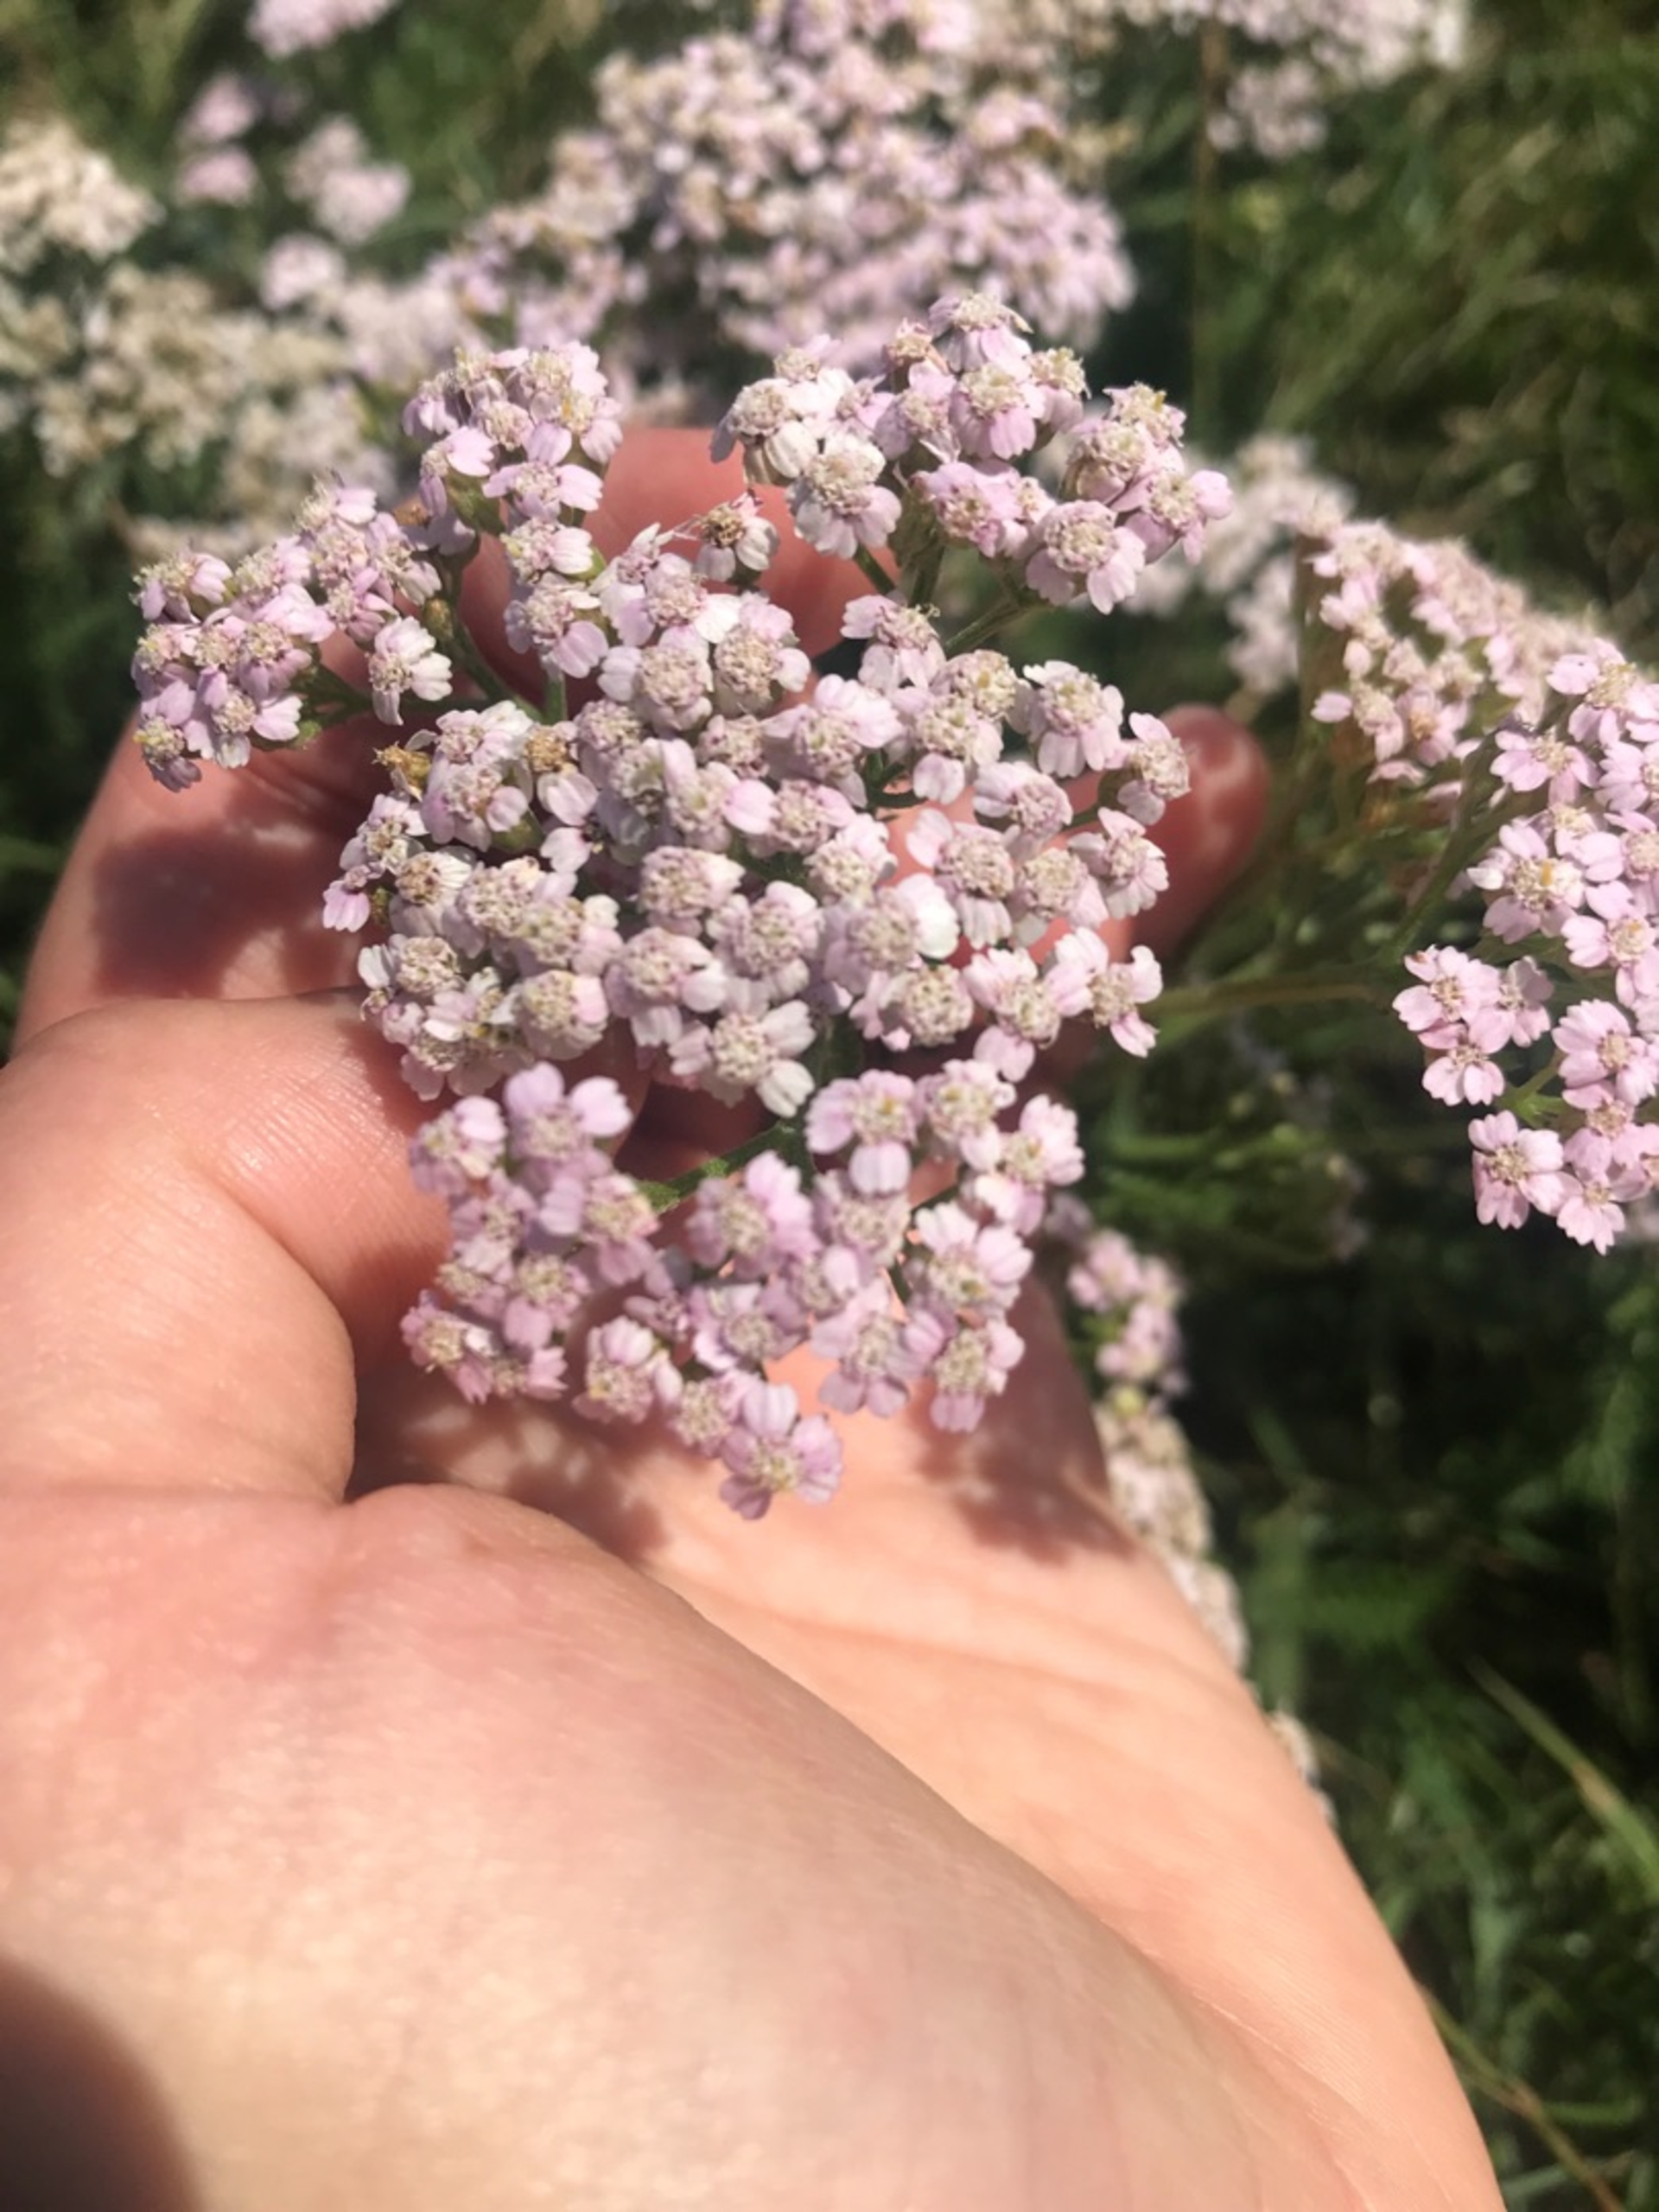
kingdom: Plantae
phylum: Tracheophyta
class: Magnoliopsida
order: Asterales
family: Asteraceae
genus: Achillea
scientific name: Achillea millefolium
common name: Almindelig røllike
